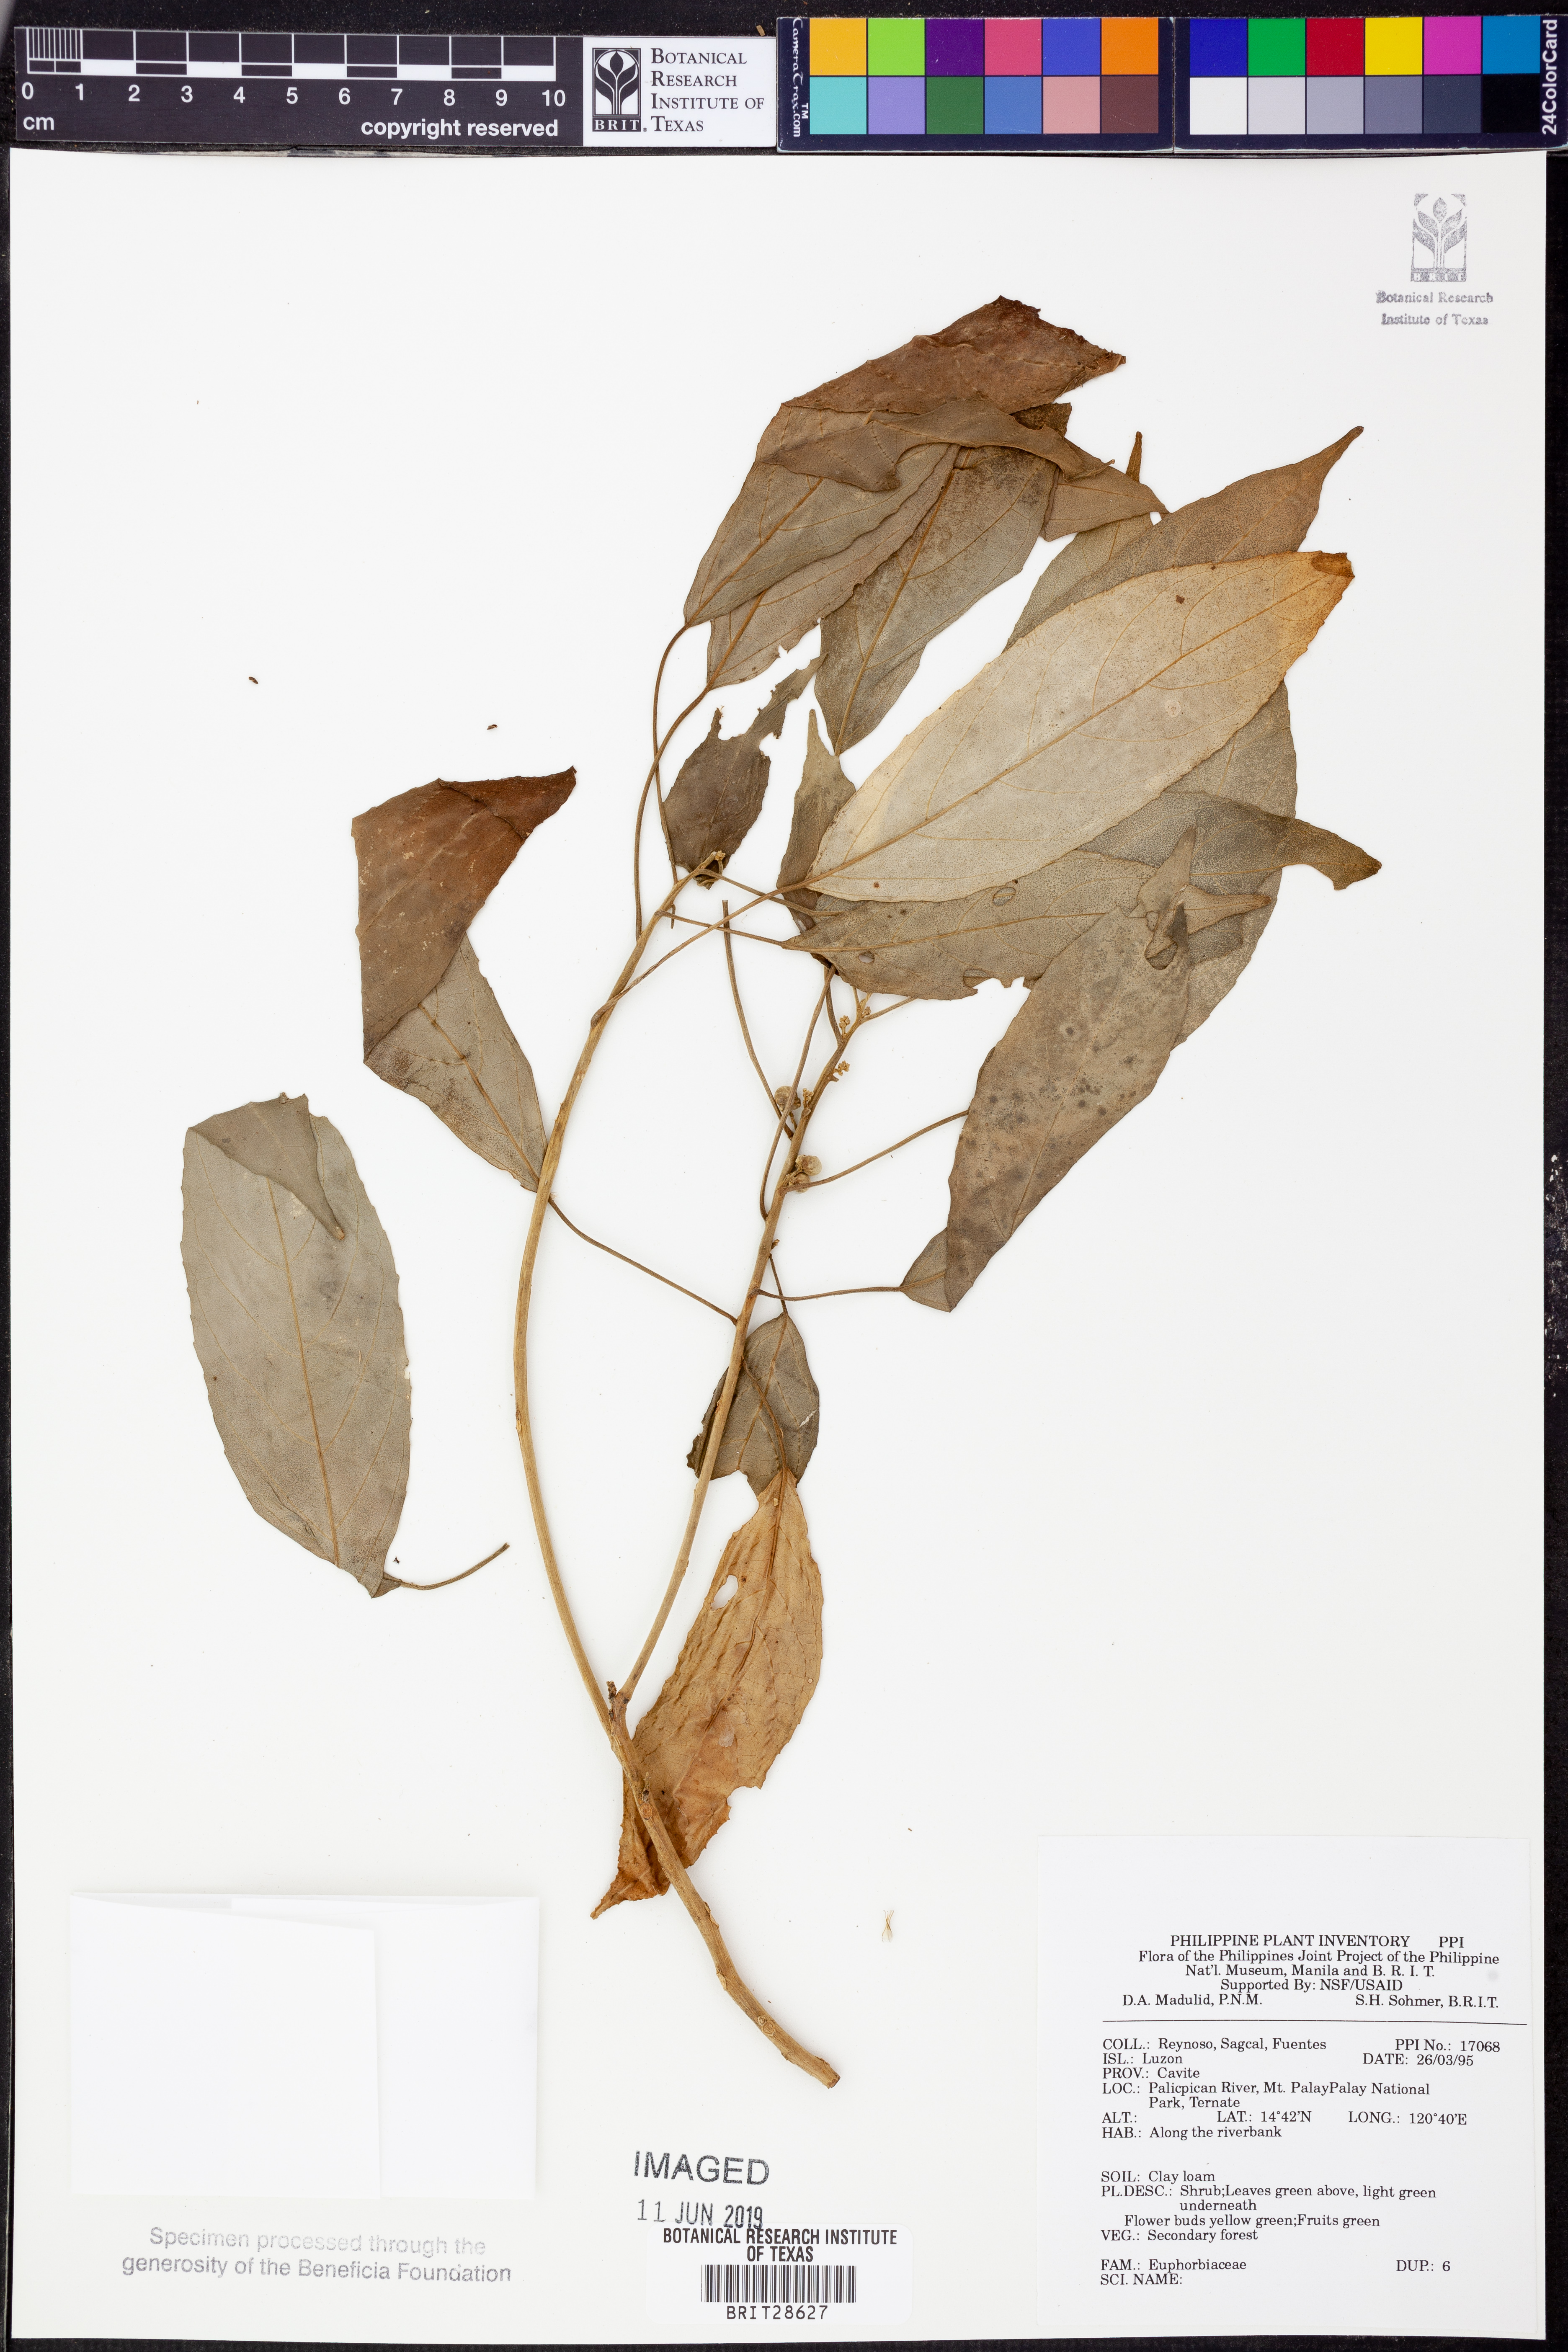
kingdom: Plantae
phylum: Tracheophyta
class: Magnoliopsida
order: Malpighiales
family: Euphorbiaceae
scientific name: Euphorbiaceae
